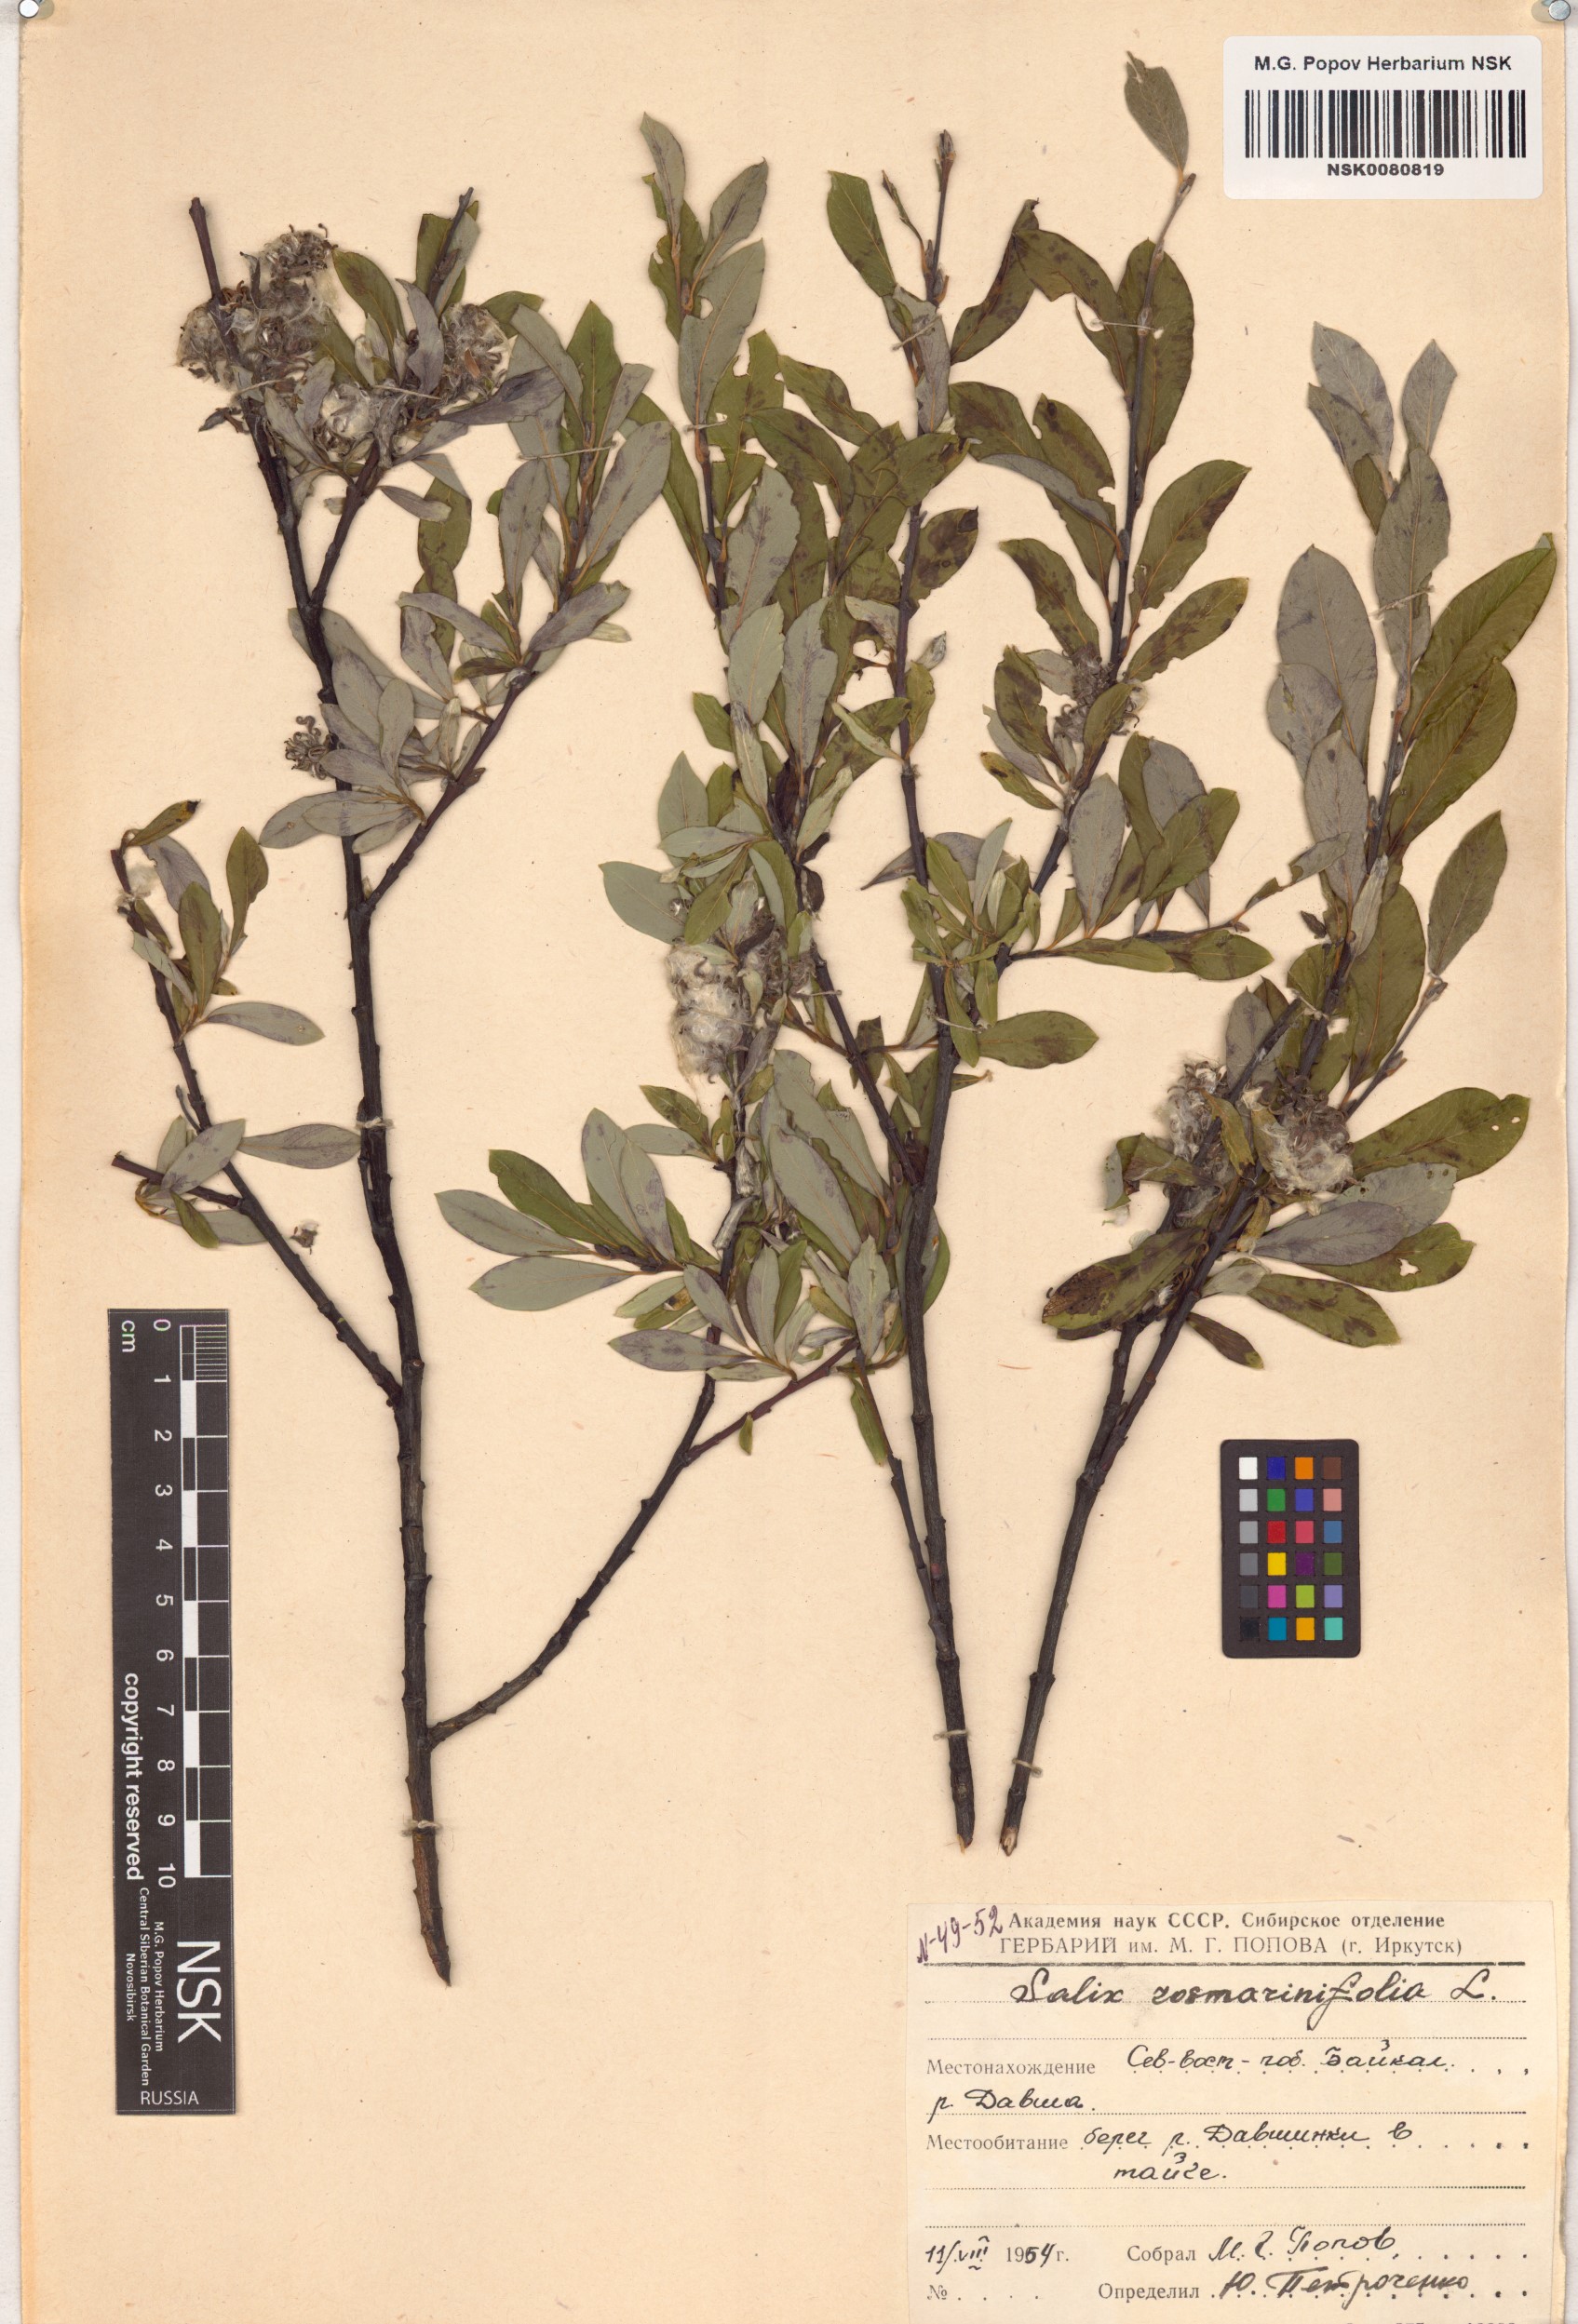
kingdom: Plantae
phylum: Tracheophyta
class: Magnoliopsida
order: Malpighiales
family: Salicaceae
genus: Salix
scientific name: Salix rosmarinifolia
